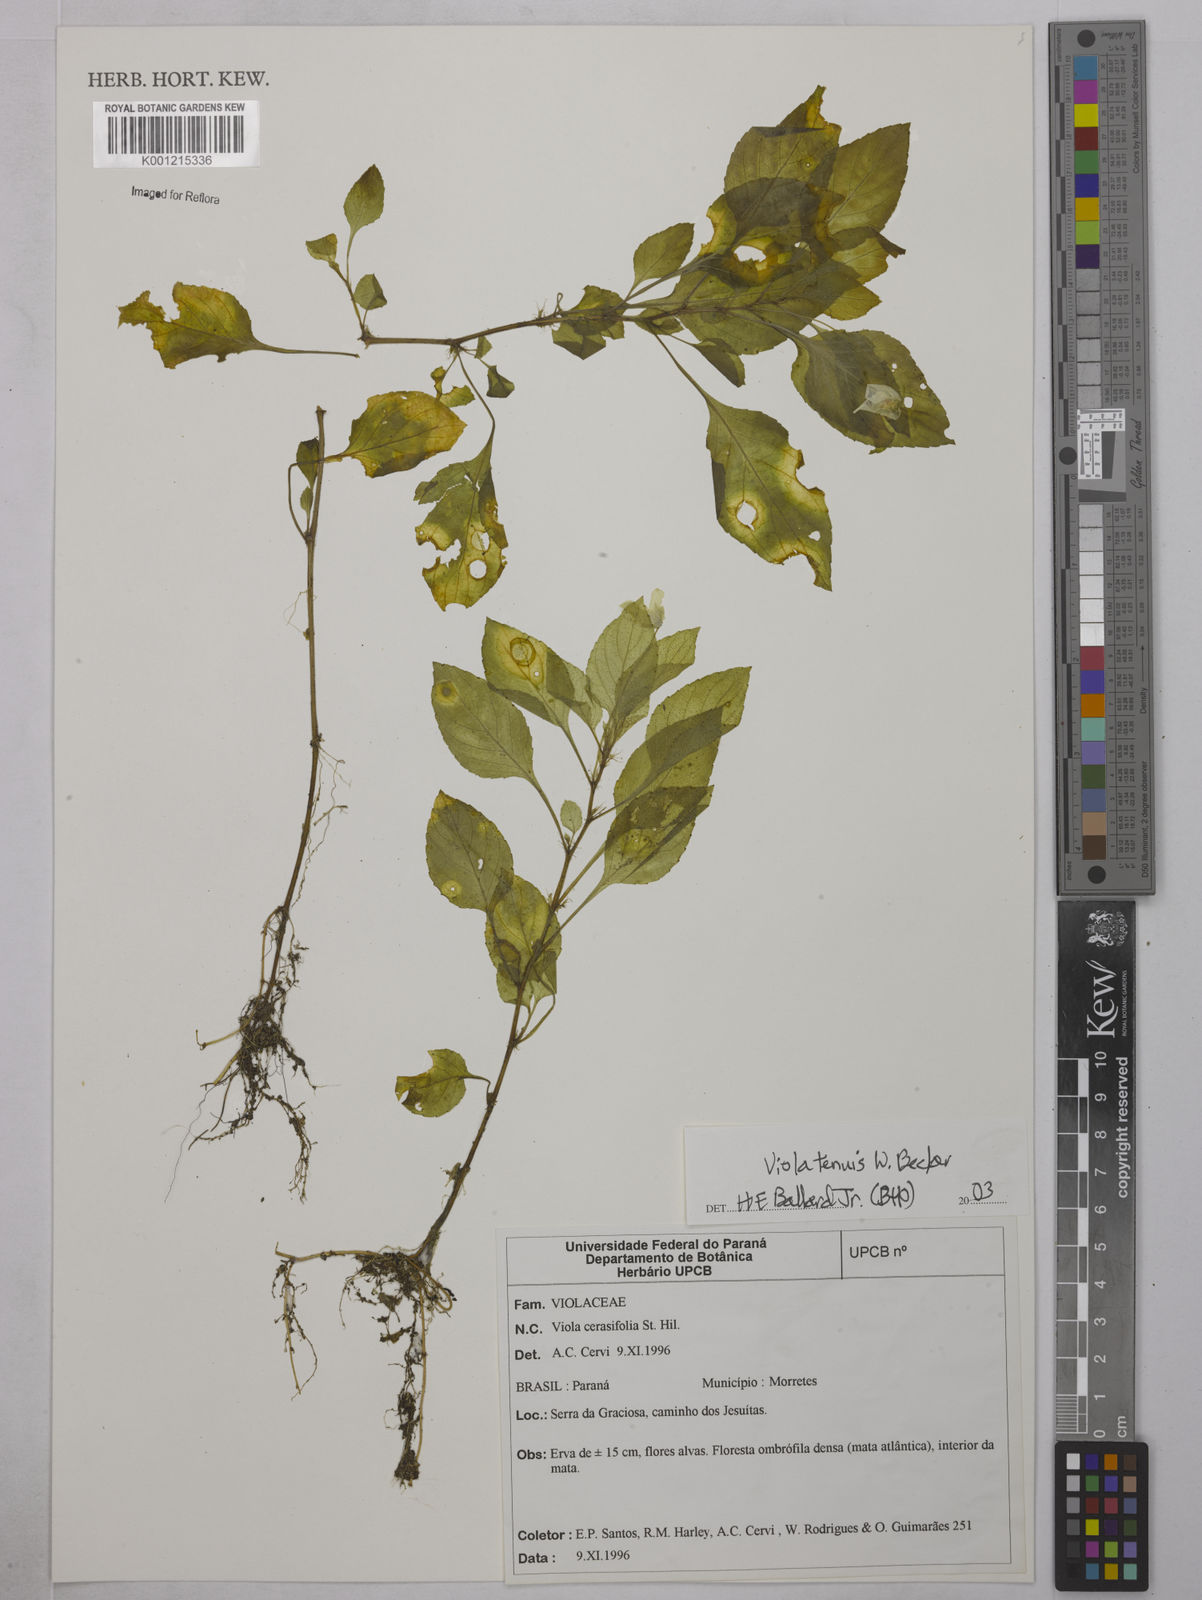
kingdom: Plantae
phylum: Tracheophyta
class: Magnoliopsida
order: Malpighiales
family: Violaceae
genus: Viola
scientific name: Viola uleana
